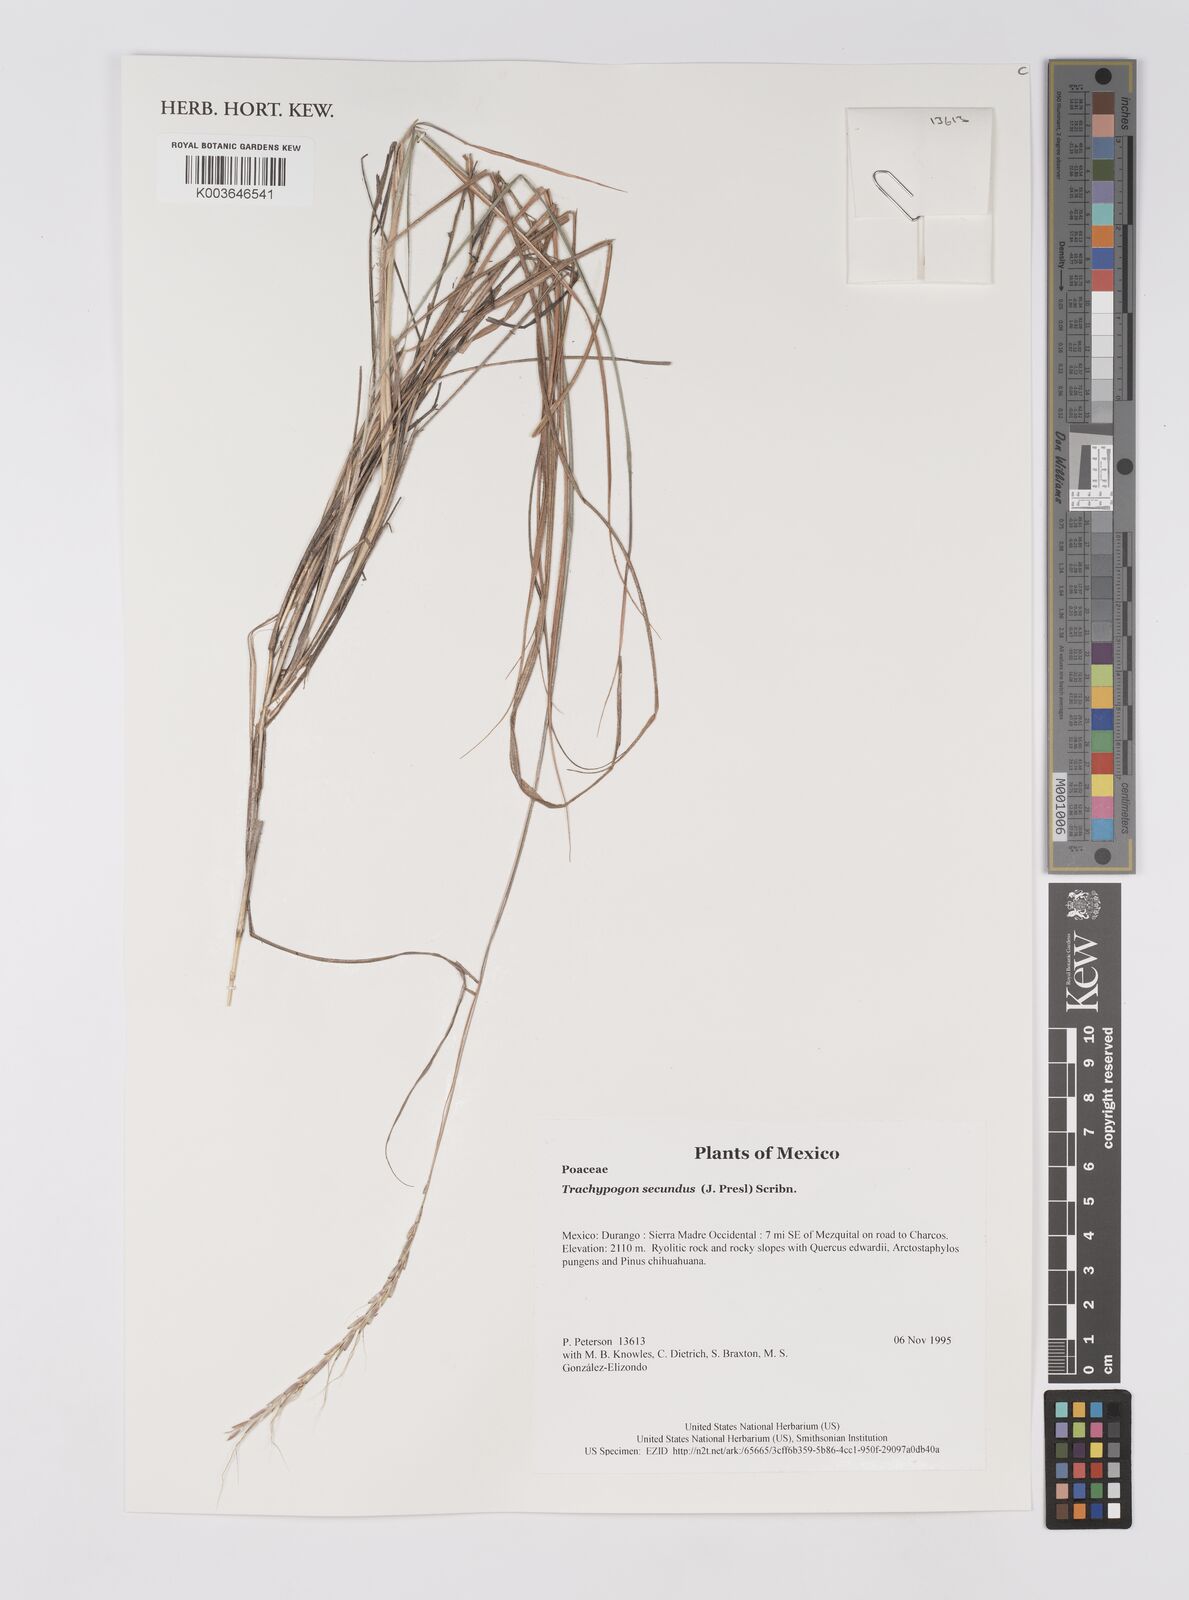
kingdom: Plantae
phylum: Tracheophyta
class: Liliopsida
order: Poales
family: Poaceae
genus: Trachypogon
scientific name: Trachypogon spicatus
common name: Crinkle-awn
